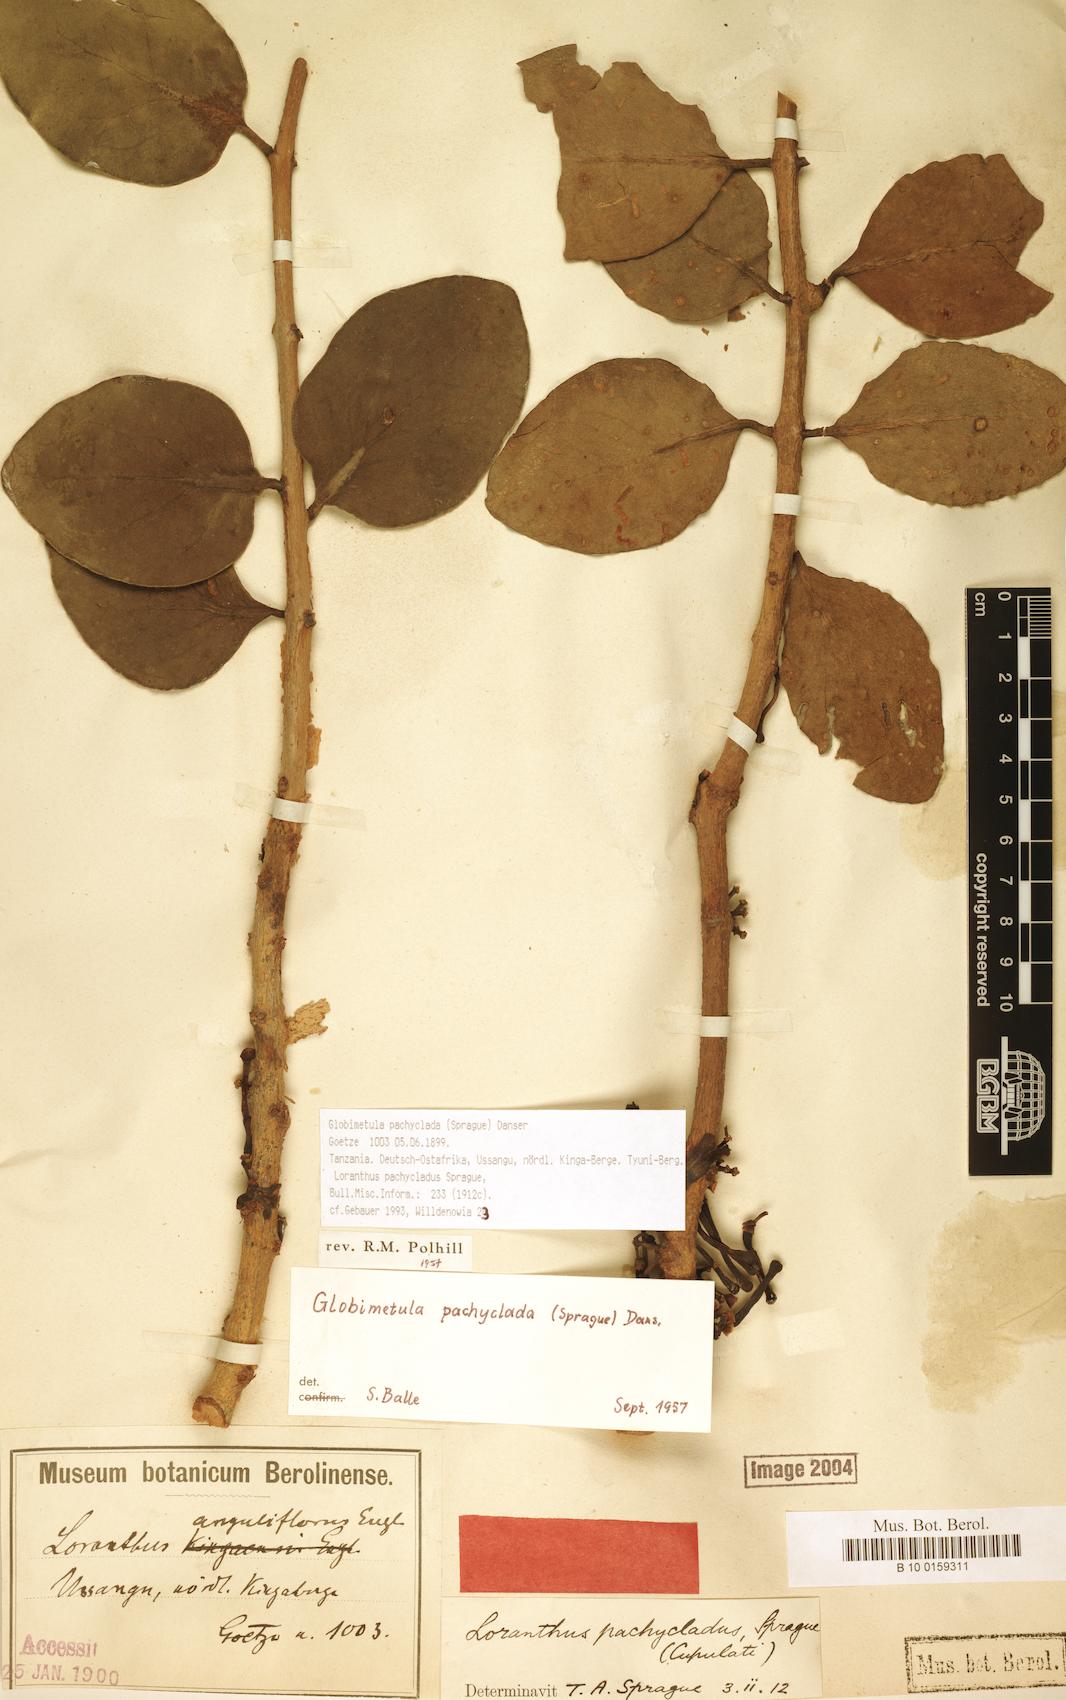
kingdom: Plantae
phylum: Tracheophyta
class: Magnoliopsida
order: Santalales
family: Loranthaceae
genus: Globimetula
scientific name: Globimetula pachyclada
